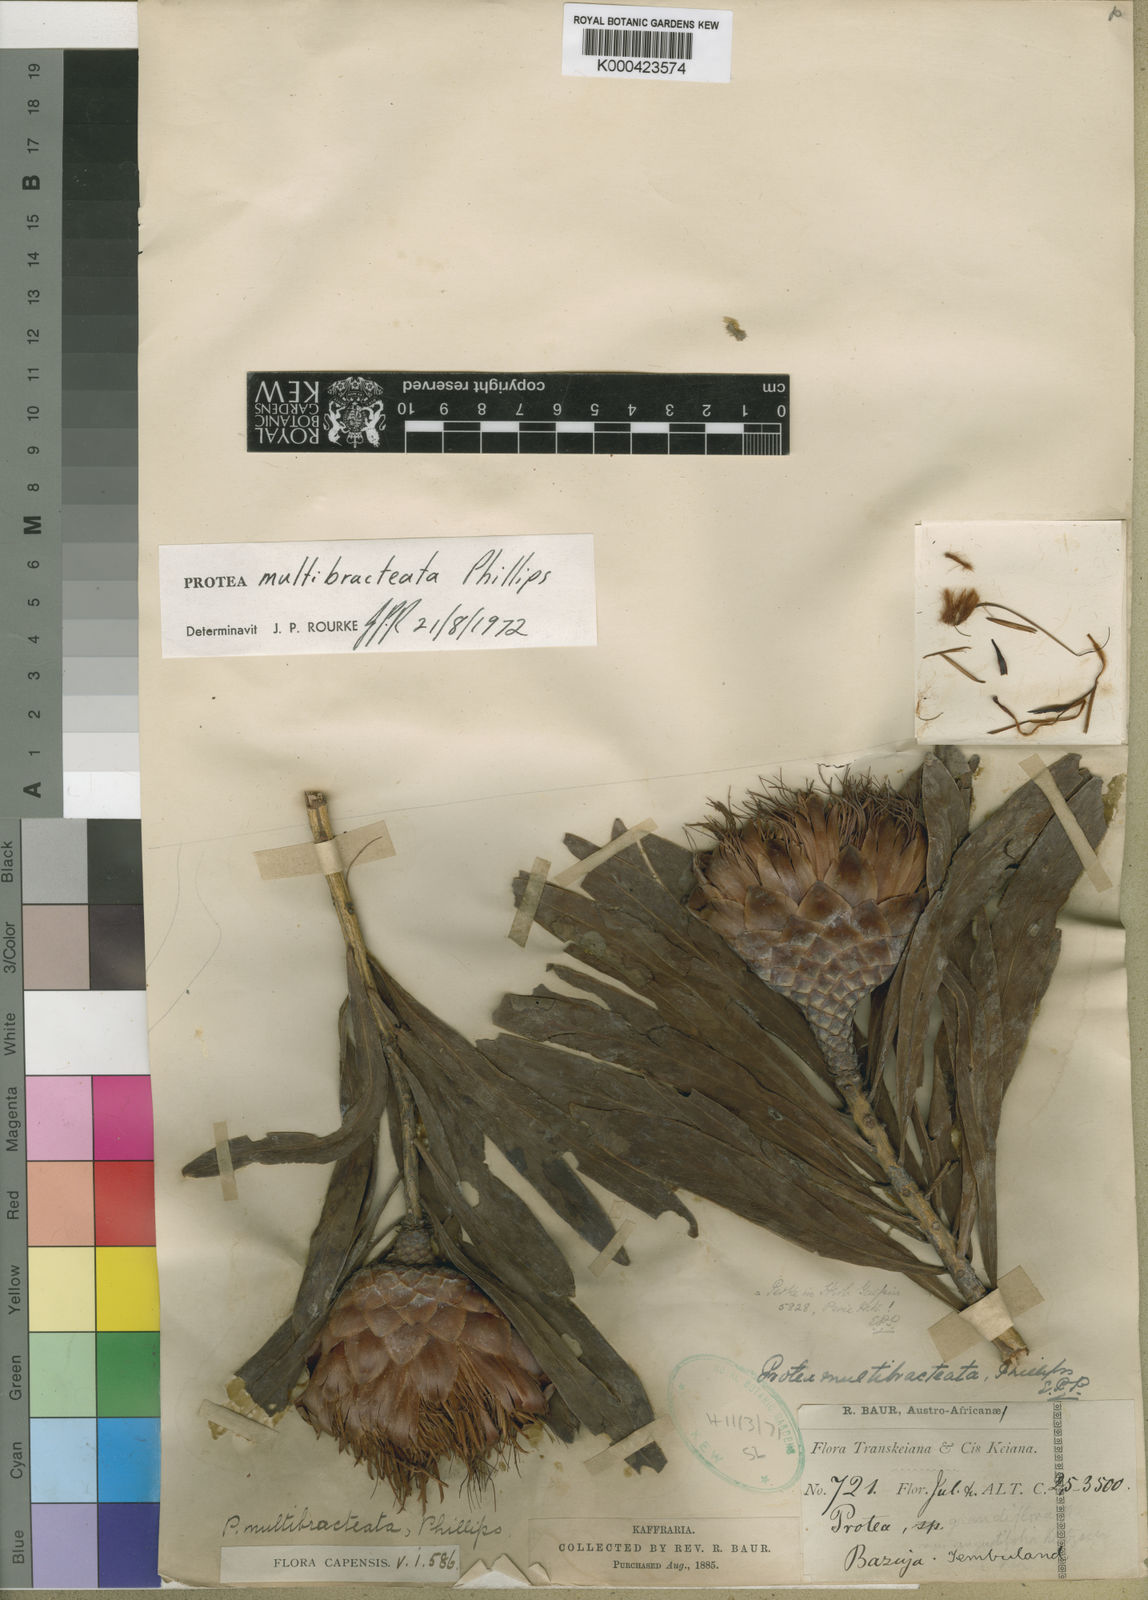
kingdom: Plantae
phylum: Tracheophyta
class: Magnoliopsida
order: Proteales
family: Proteaceae
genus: Protea
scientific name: Protea caffra
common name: Common sugarbush
